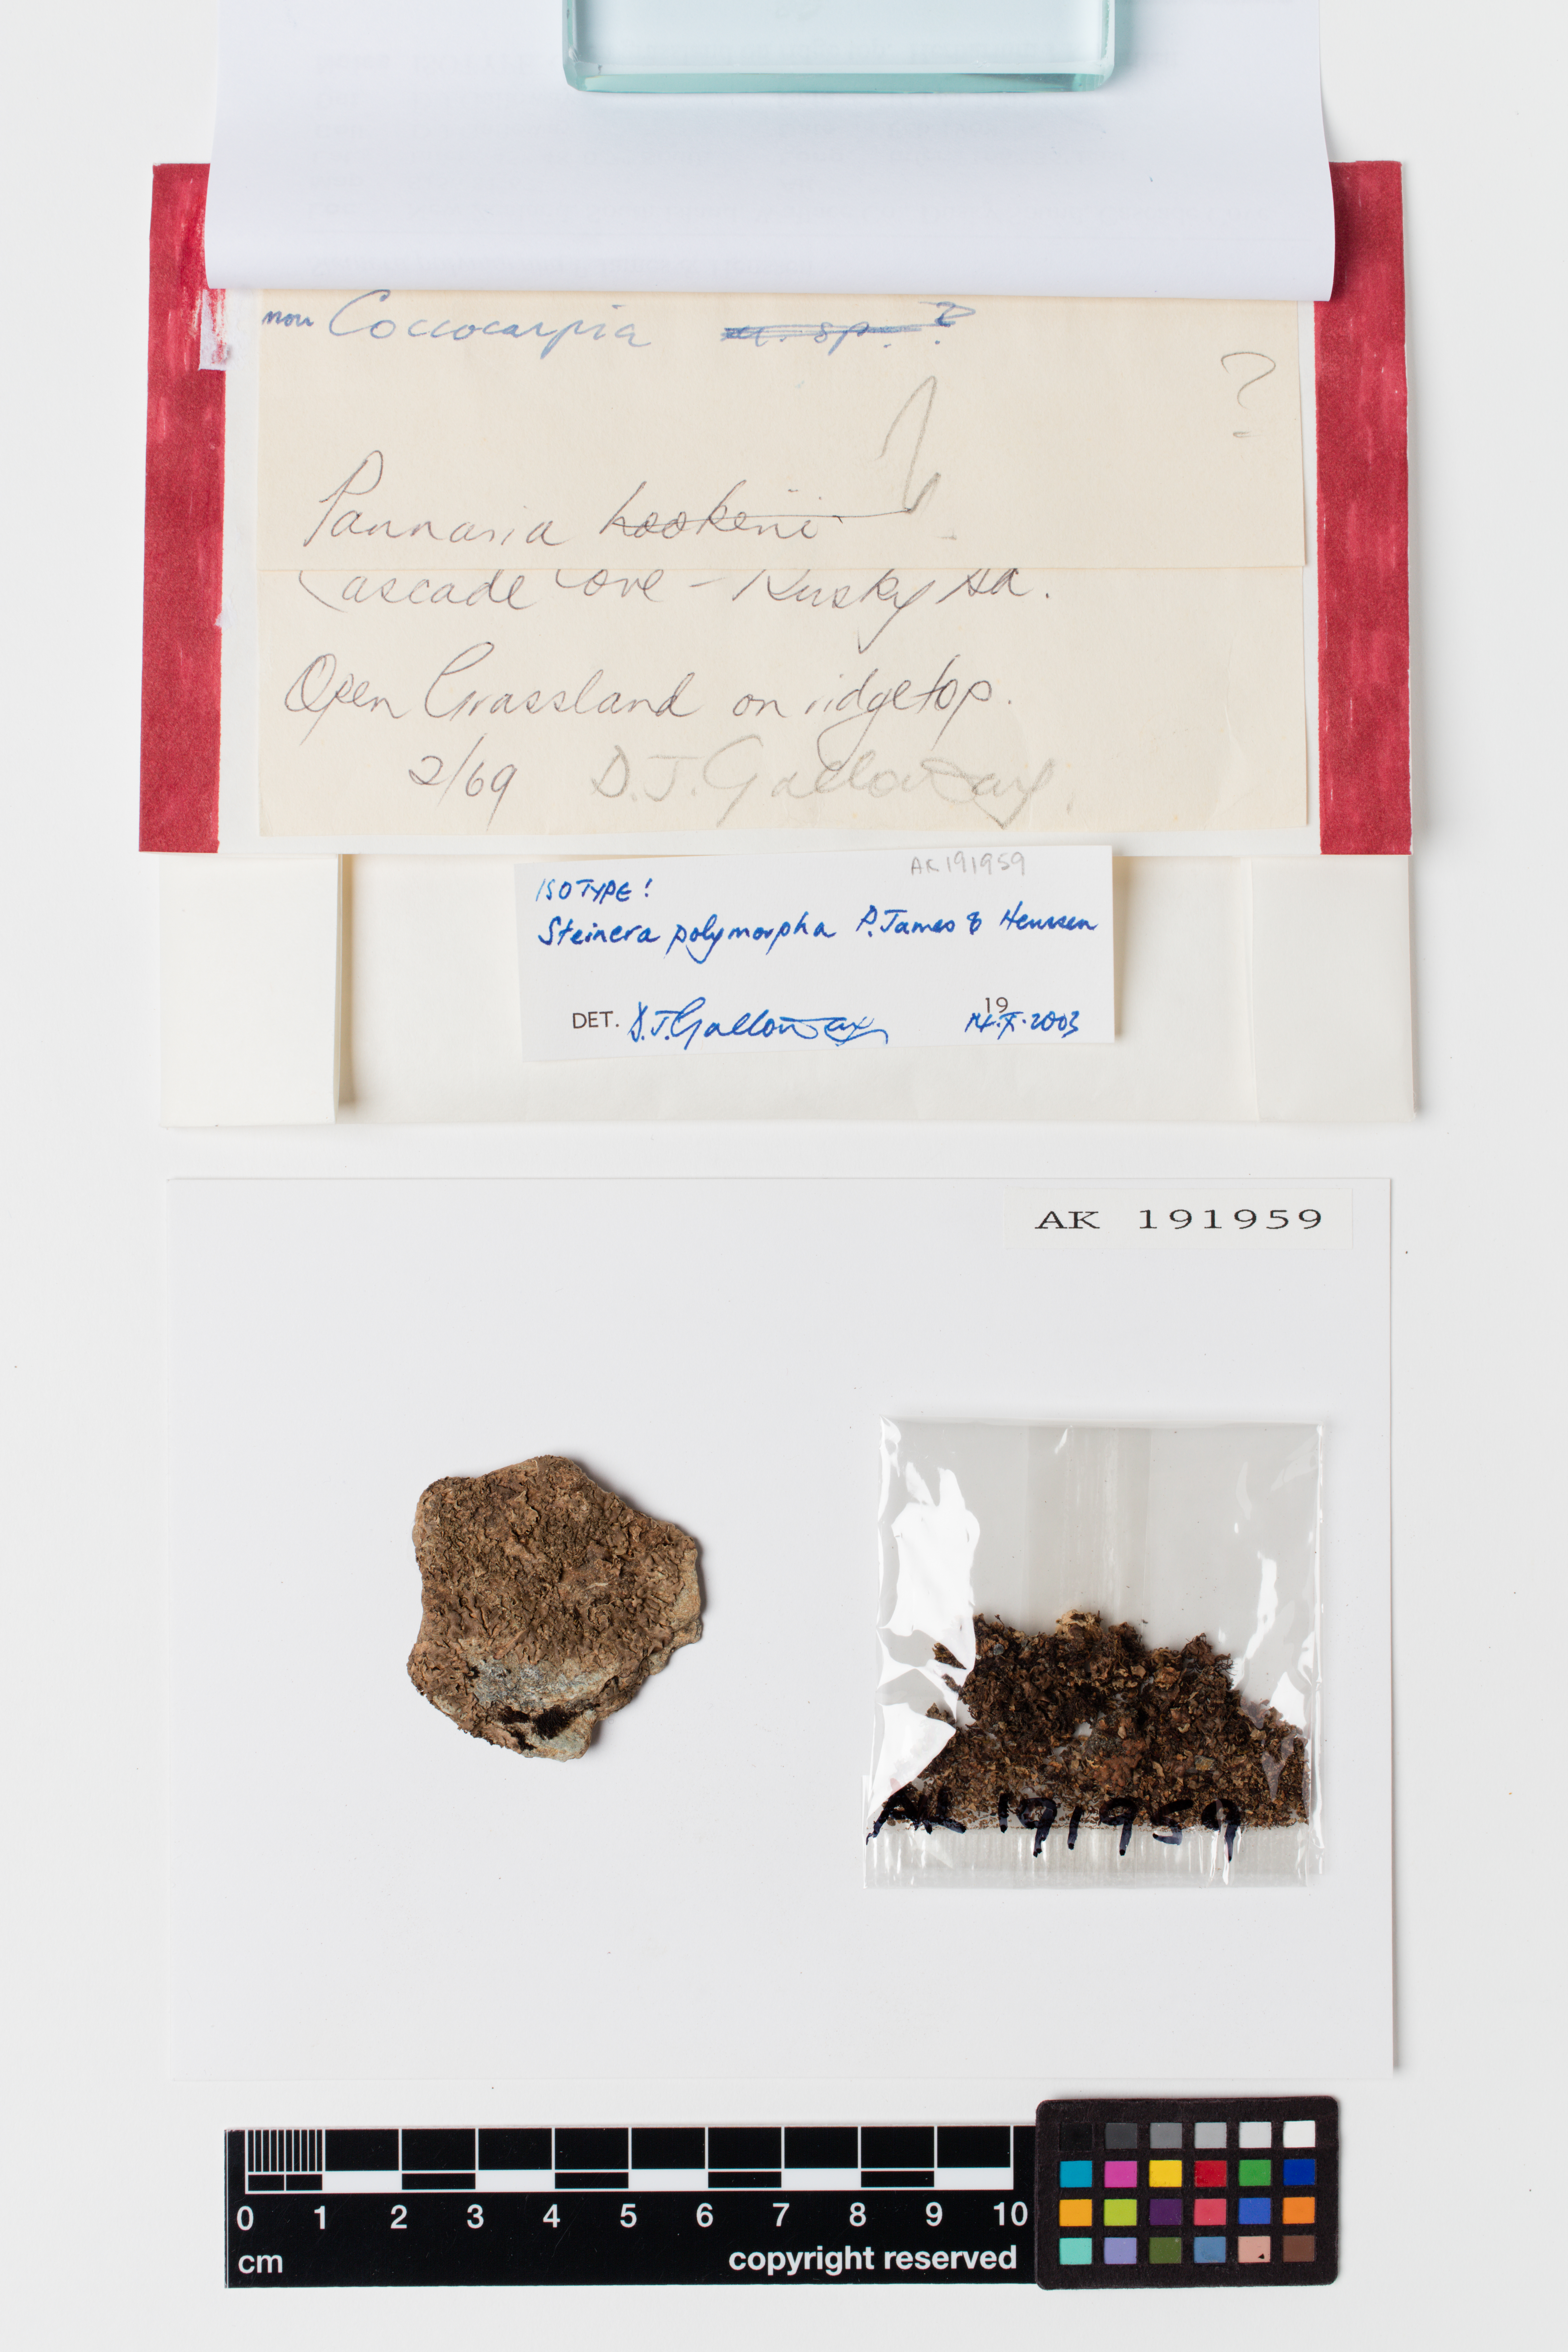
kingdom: Fungi
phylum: Ascomycota
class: Lecanoromycetes
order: Peltigerales
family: Coccocarpiaceae
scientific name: Coccocarpiaceae
